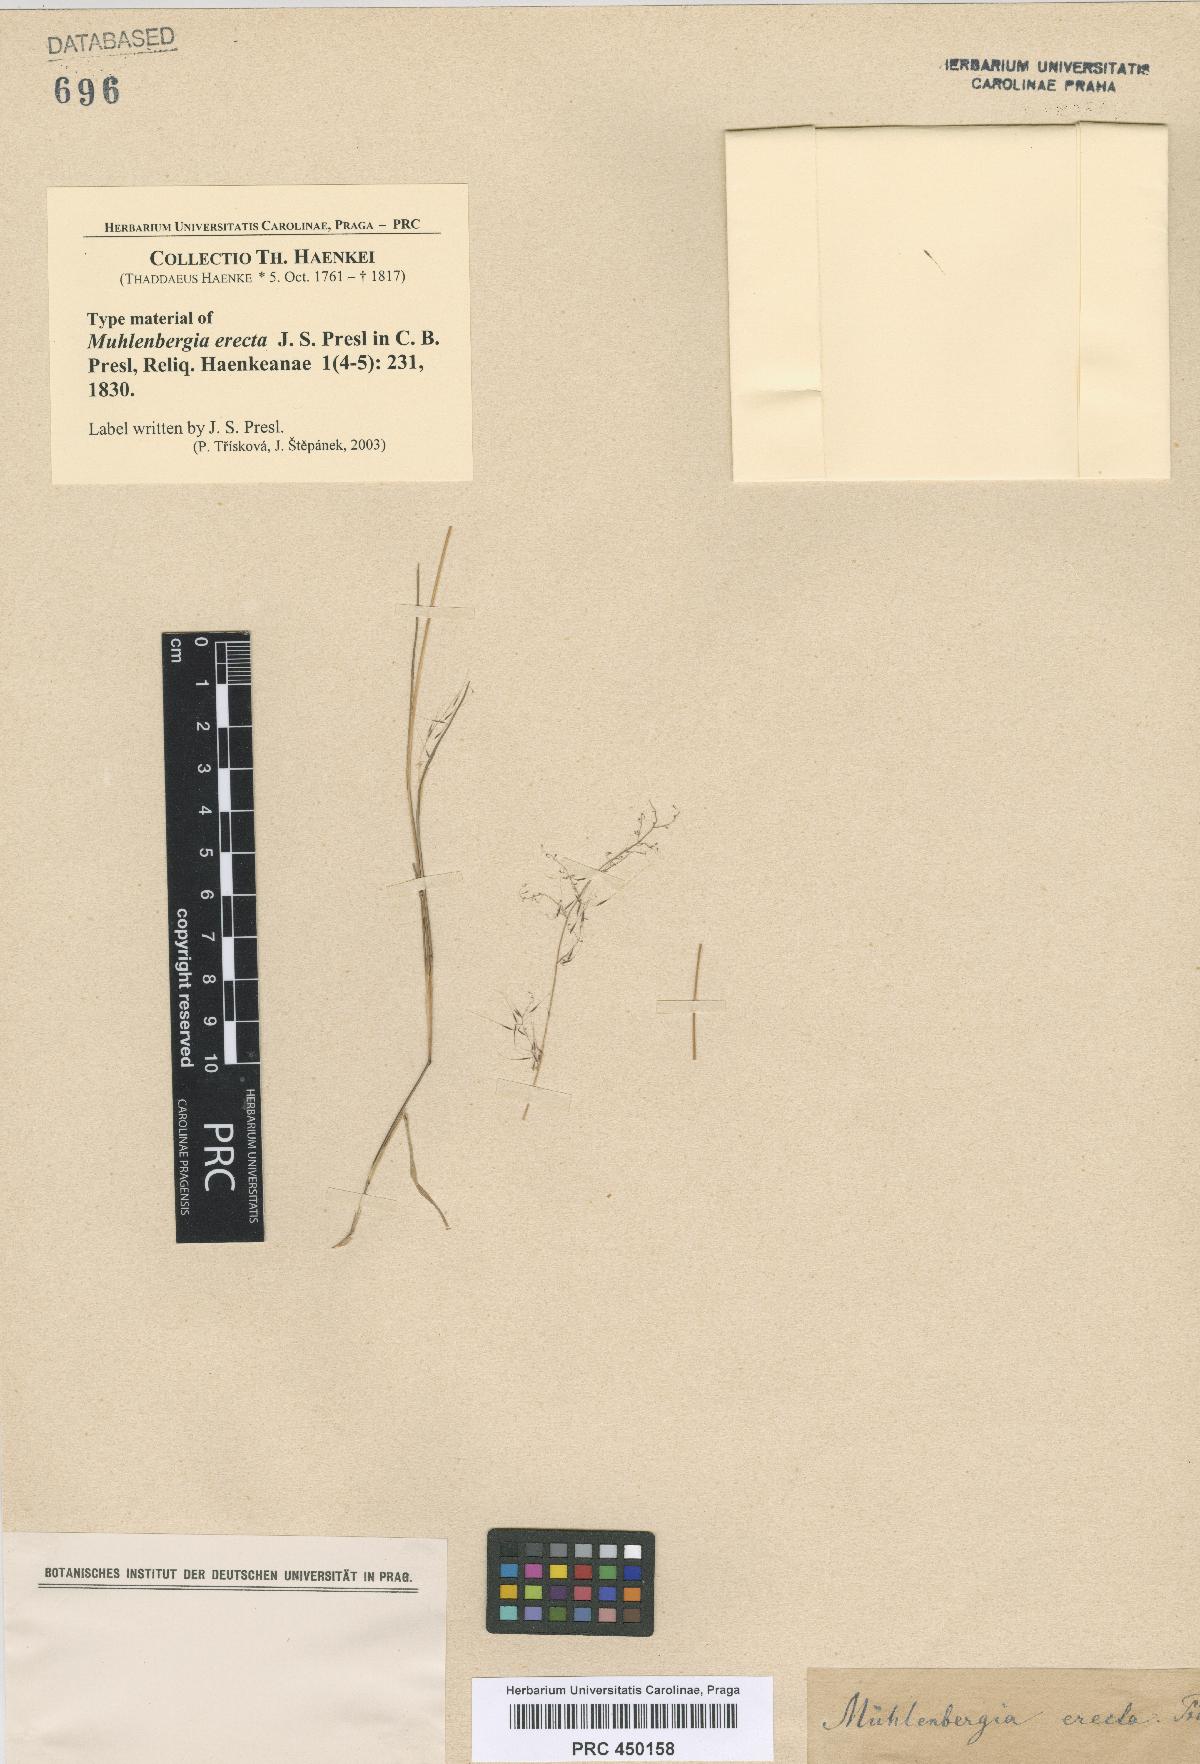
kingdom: Plantae
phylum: Tracheophyta
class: Liliopsida
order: Poales
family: Poaceae
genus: Muhlenbergia
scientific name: Muhlenbergia
